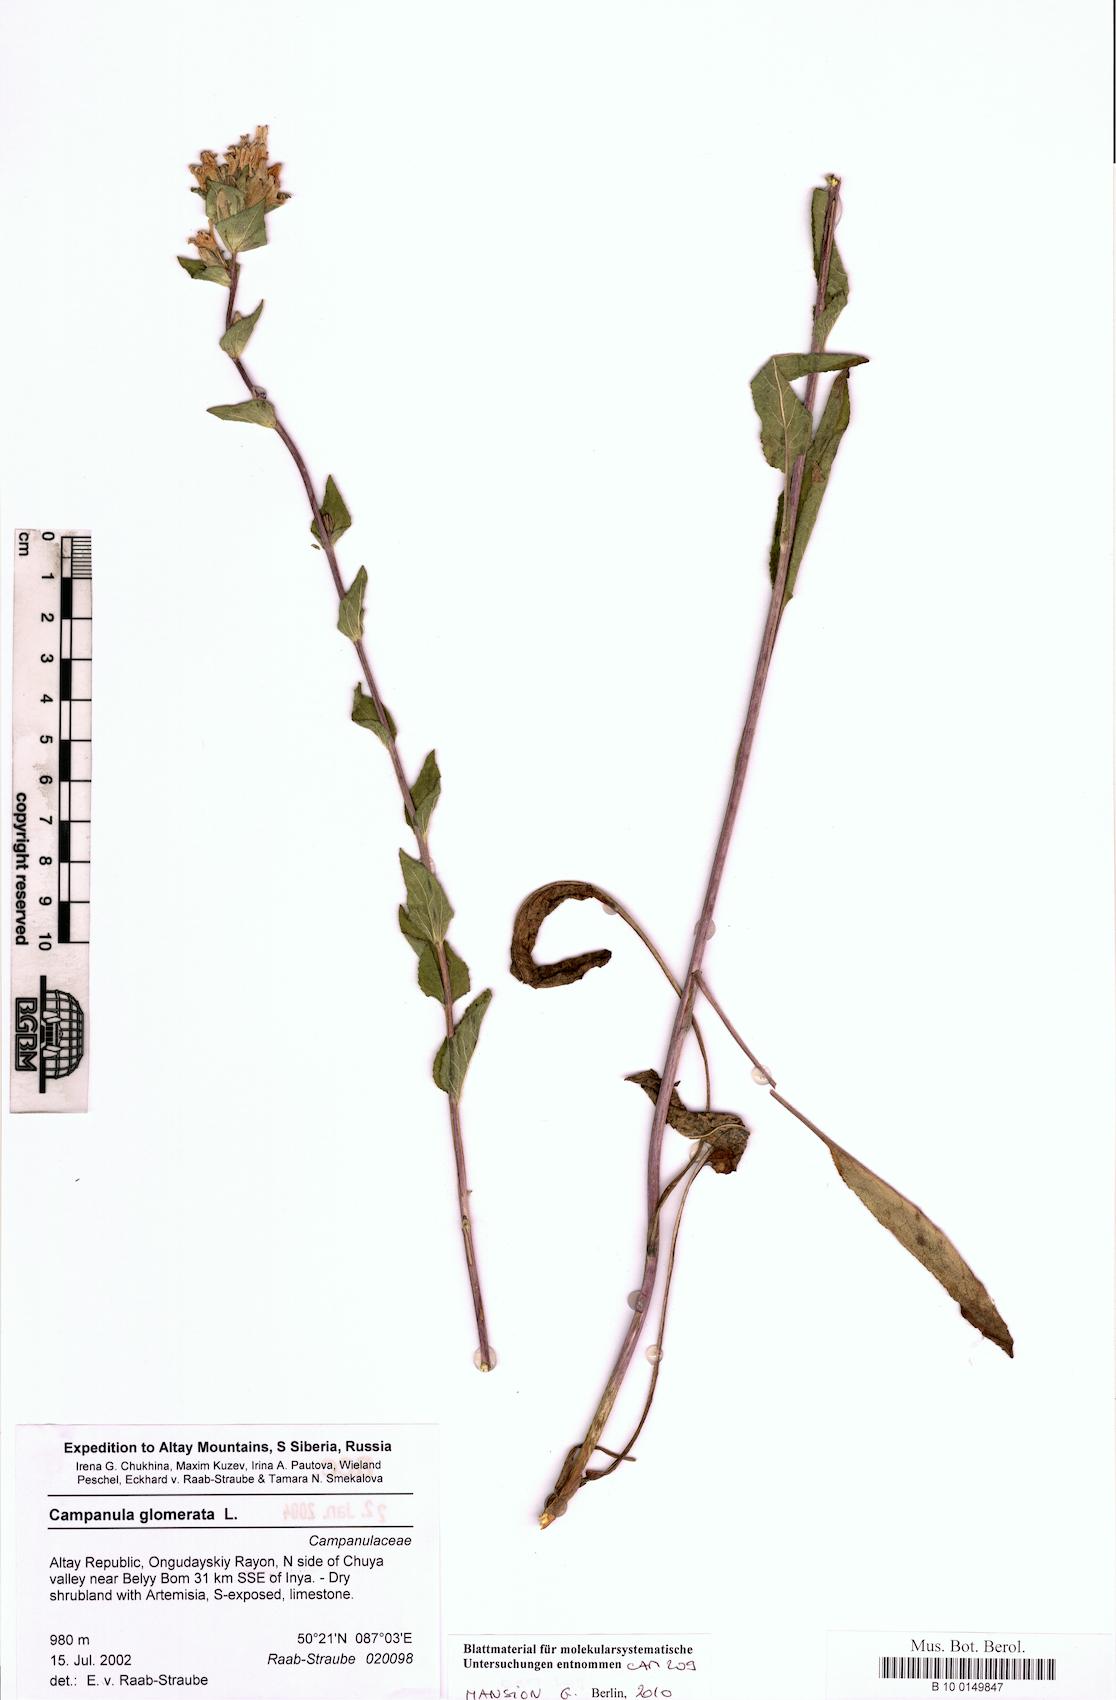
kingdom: Plantae
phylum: Tracheophyta
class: Magnoliopsida
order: Asterales
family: Campanulaceae
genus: Campanula
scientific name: Campanula glomerata
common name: Clustered bellflower
